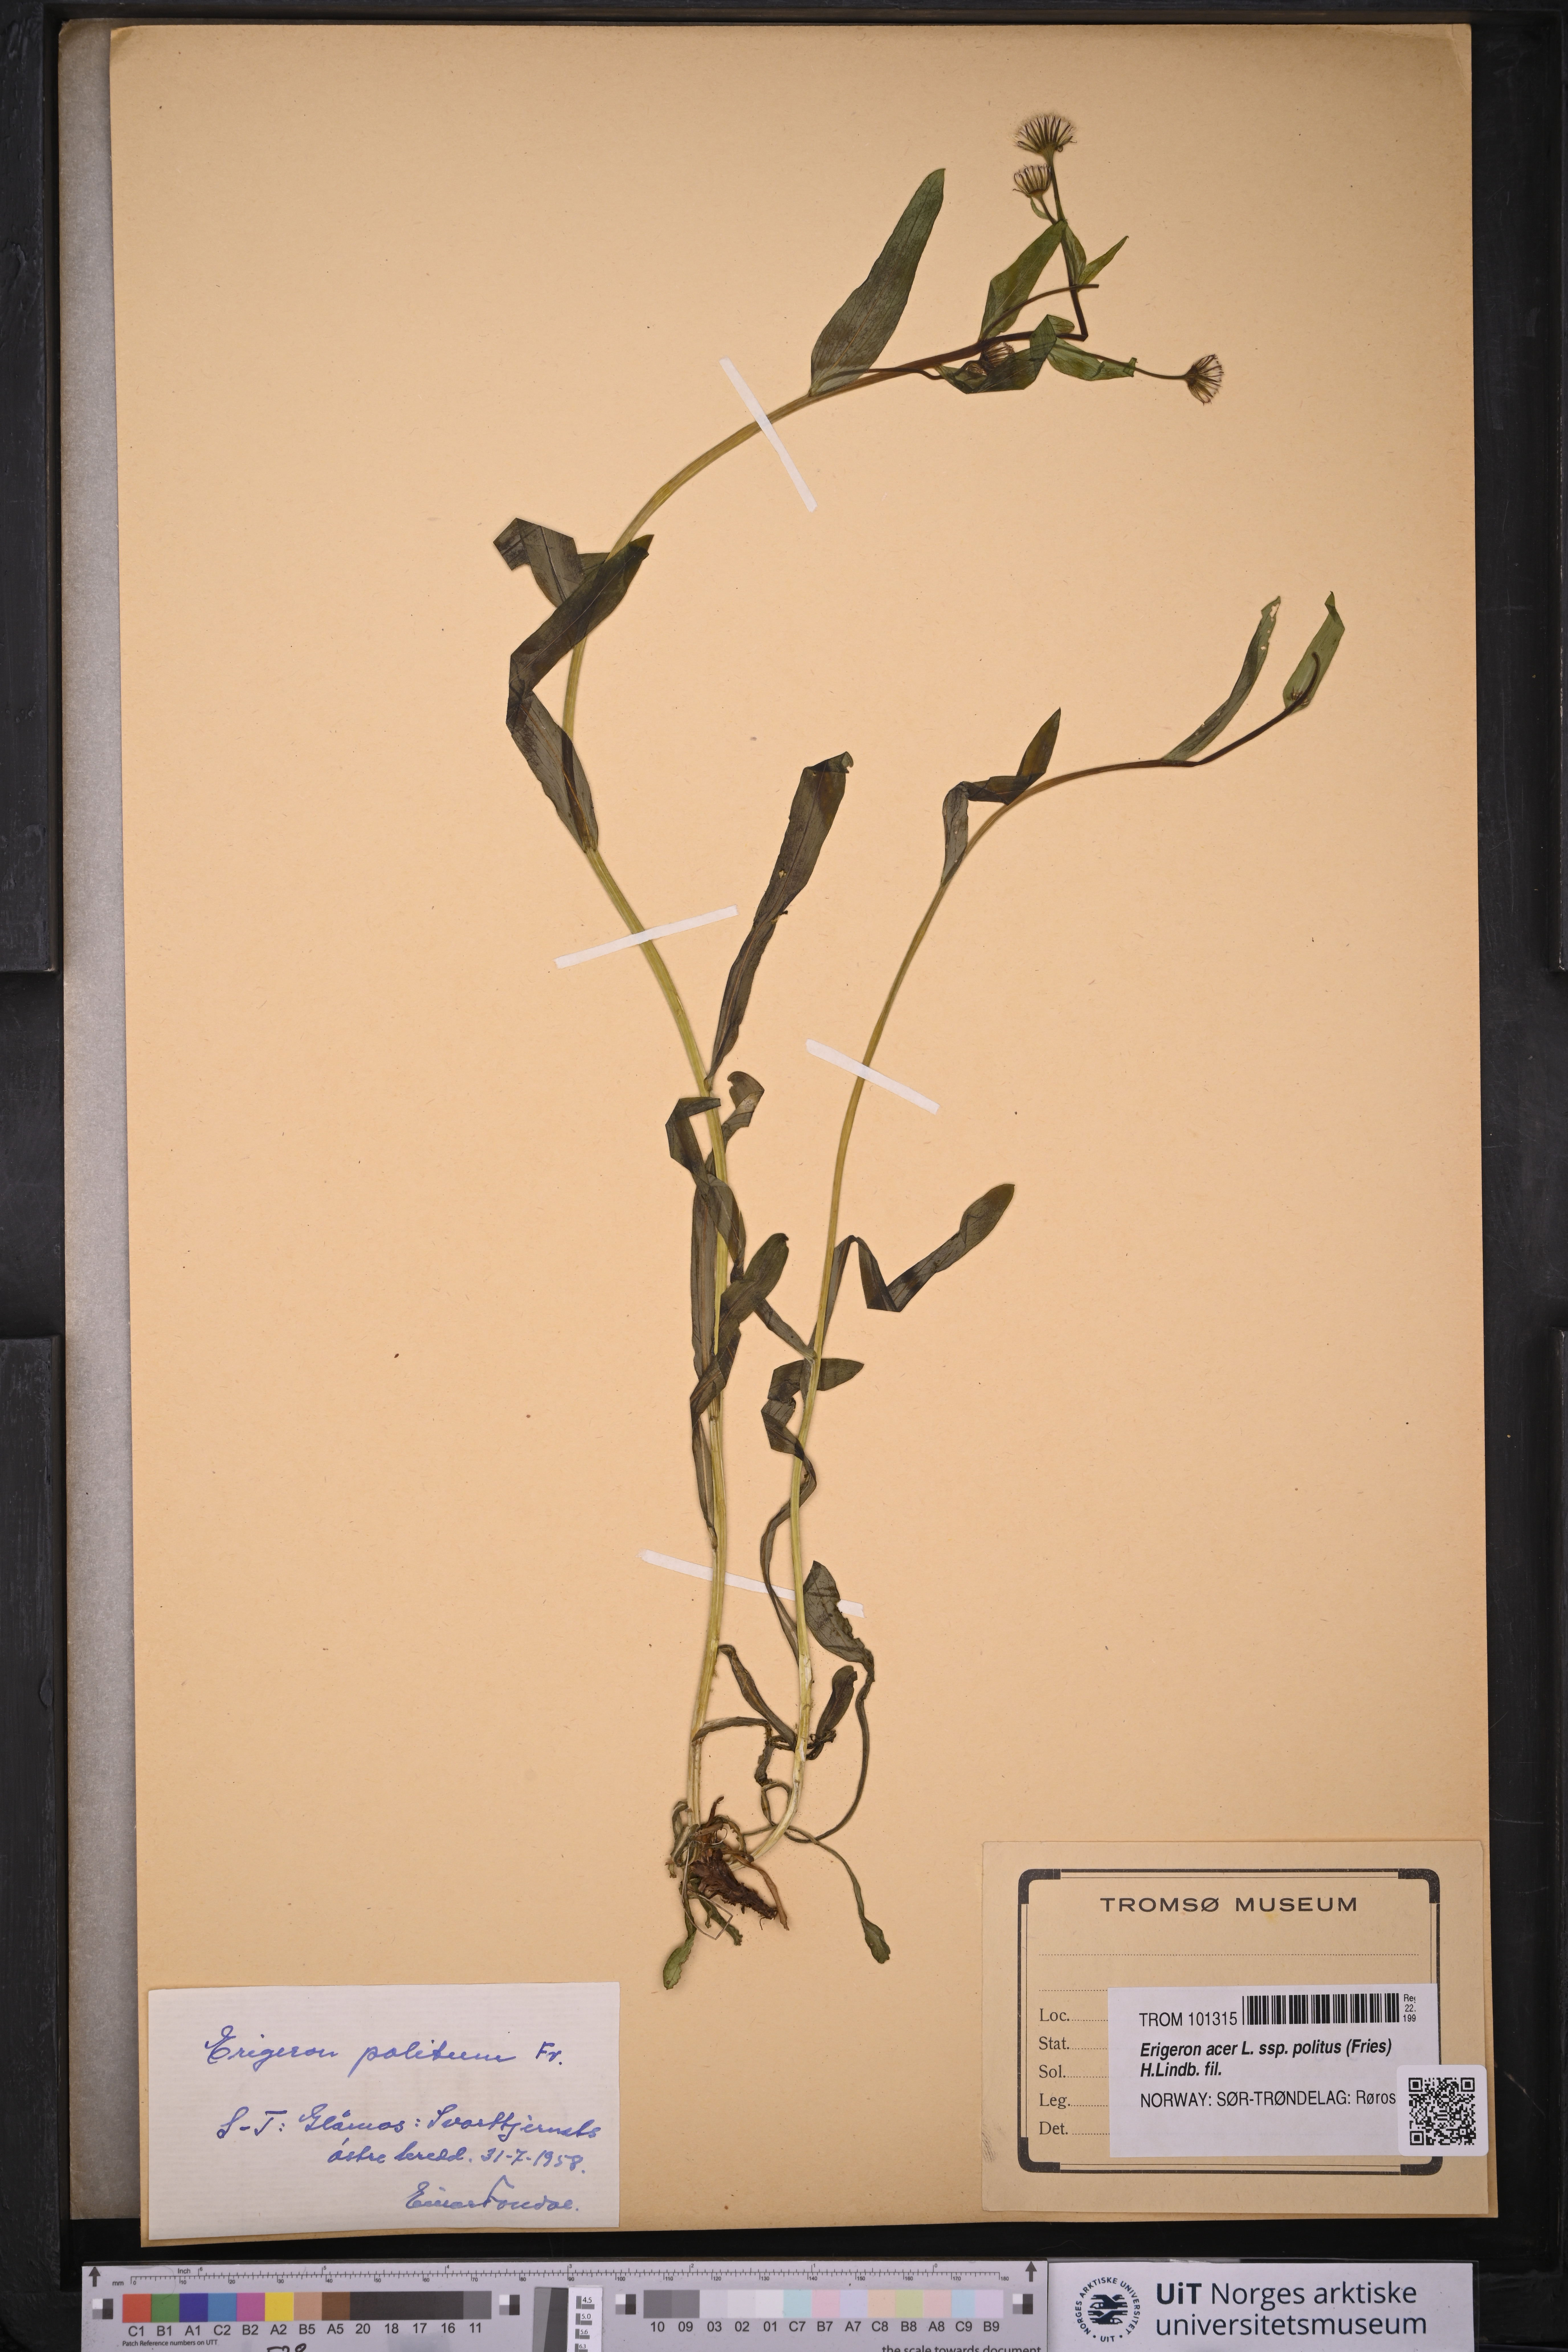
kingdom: Plantae
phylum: Tracheophyta
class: Magnoliopsida
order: Asterales
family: Asteraceae
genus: Erigeron
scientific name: Erigeron politus
